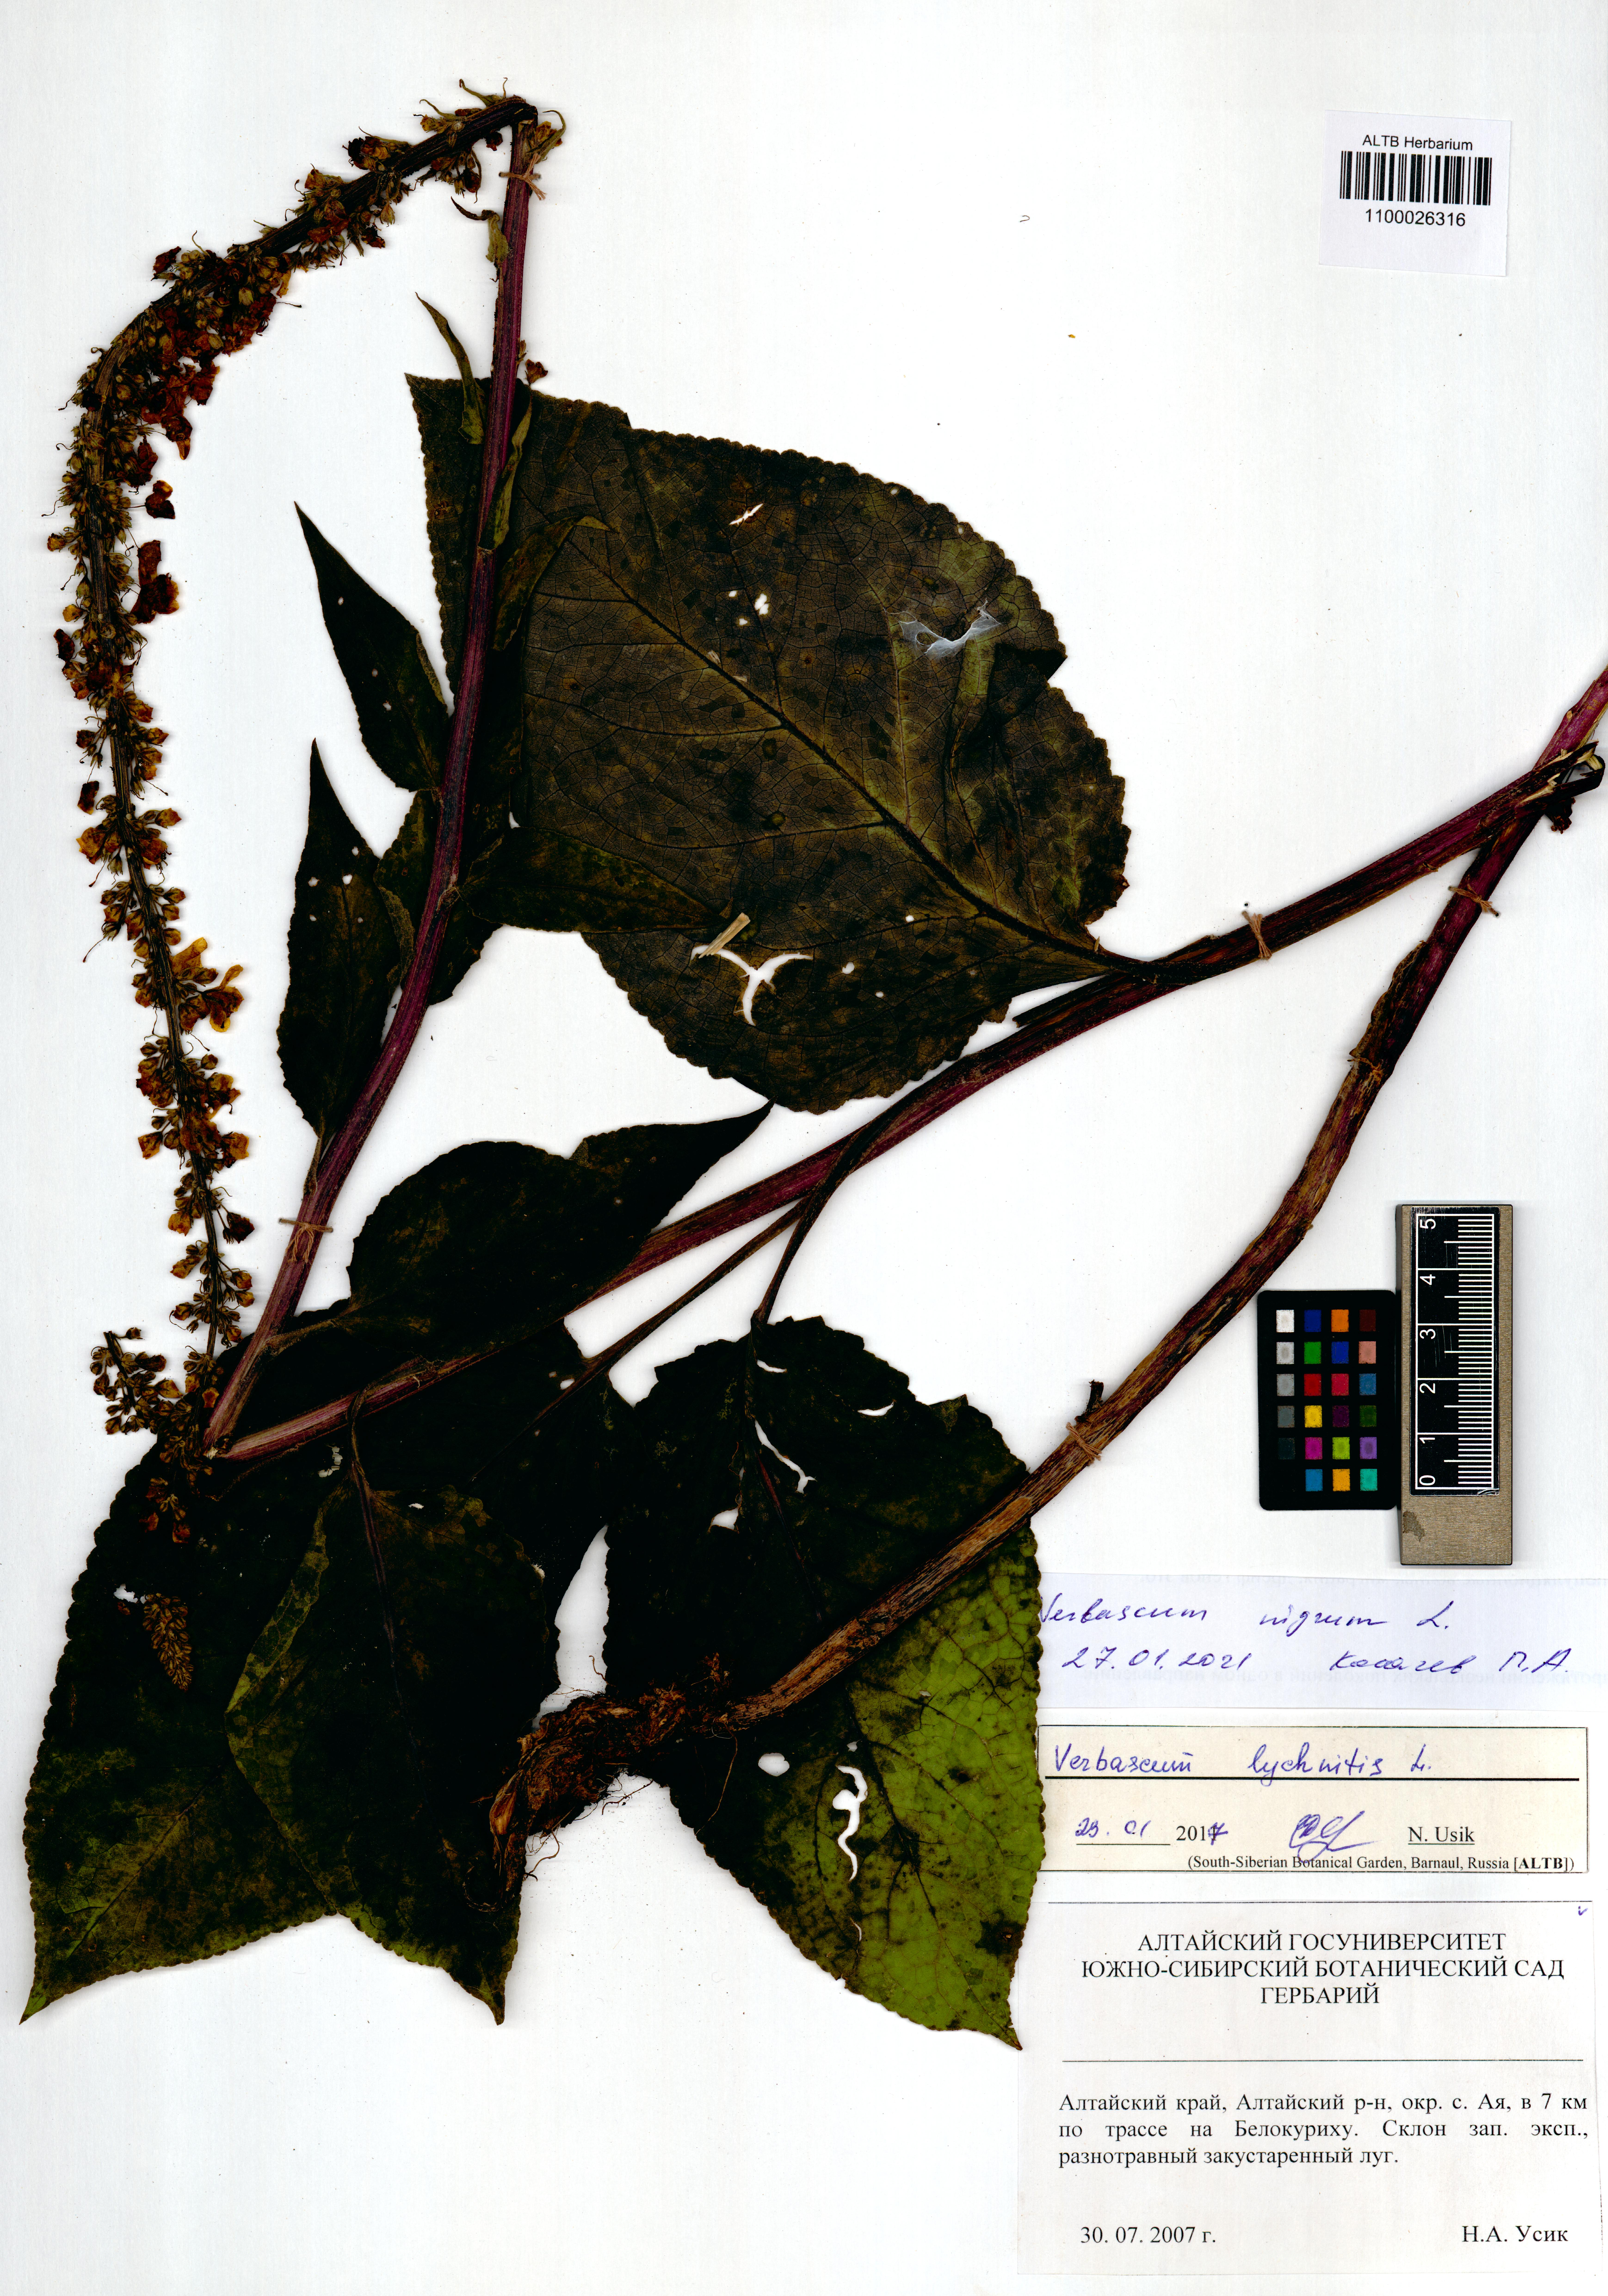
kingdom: Plantae
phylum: Tracheophyta
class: Magnoliopsida
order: Lamiales
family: Scrophulariaceae
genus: Verbascum
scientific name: Verbascum nigrum
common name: Dark mullein
